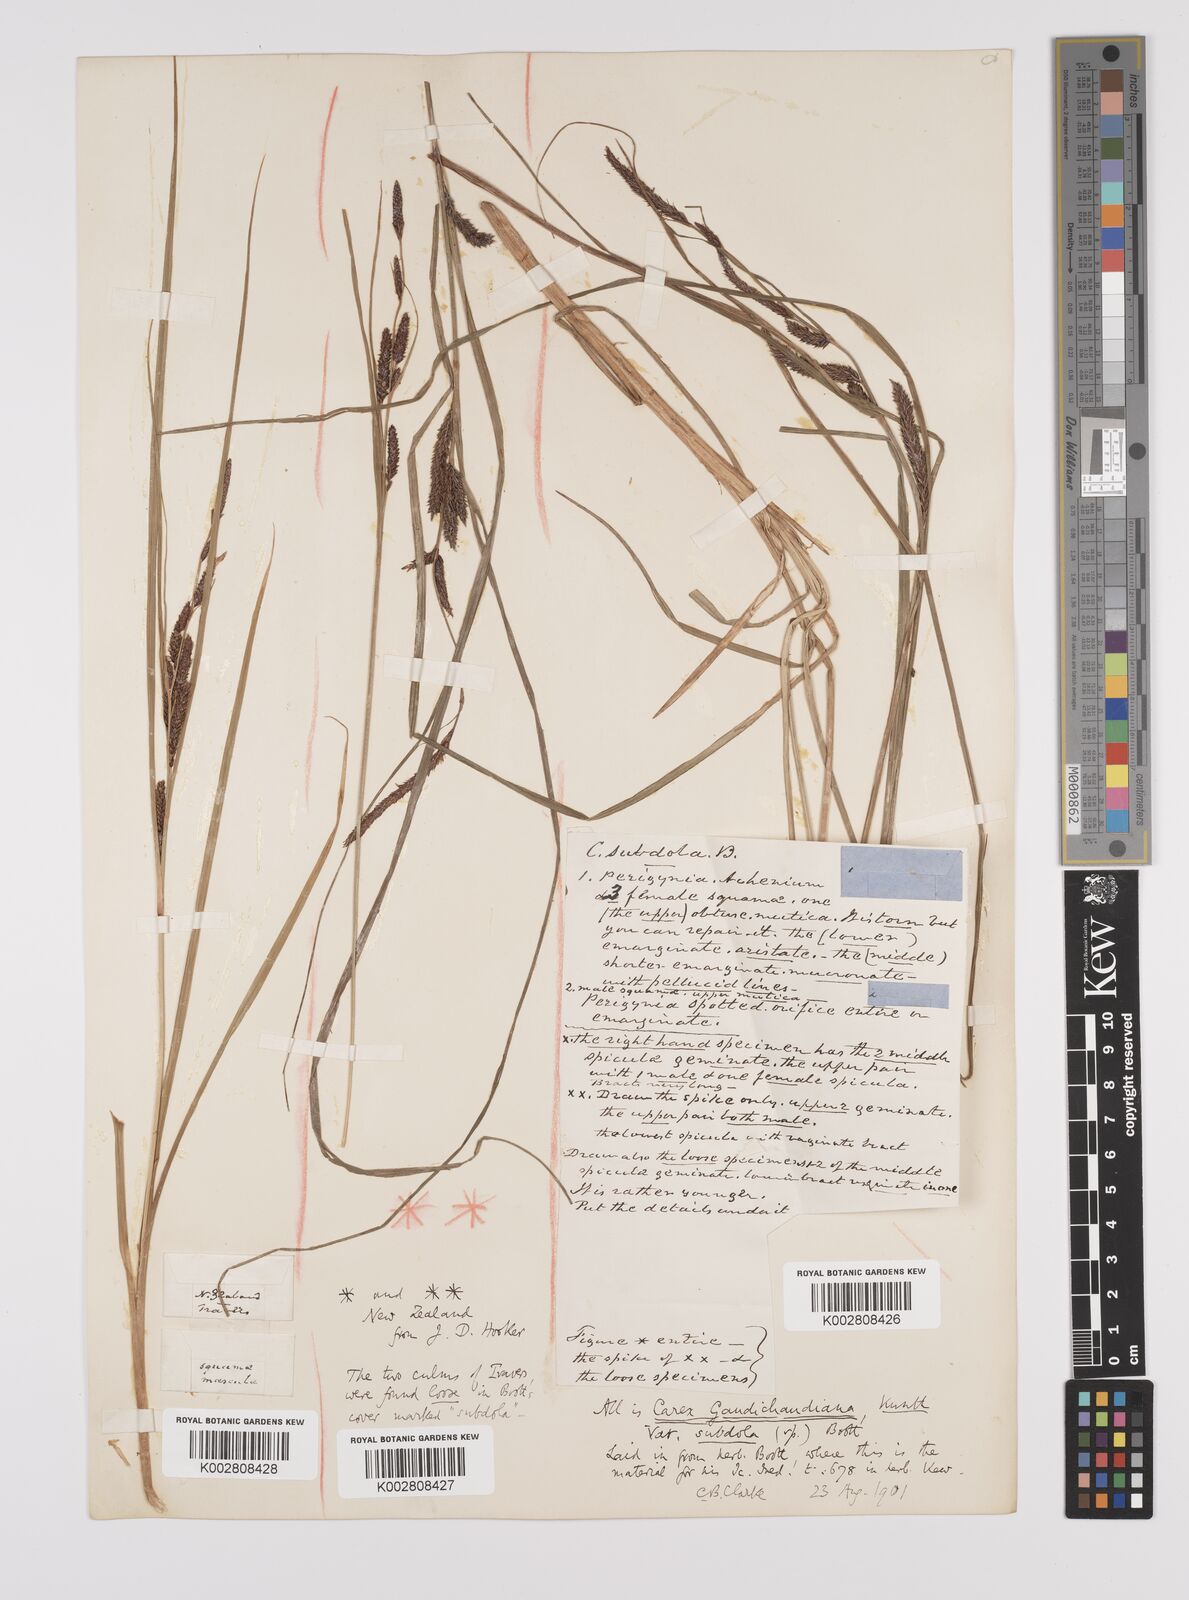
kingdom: Plantae
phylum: Tracheophyta
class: Liliopsida
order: Poales
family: Cyperaceae
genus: Carex
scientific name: Carex subdola
